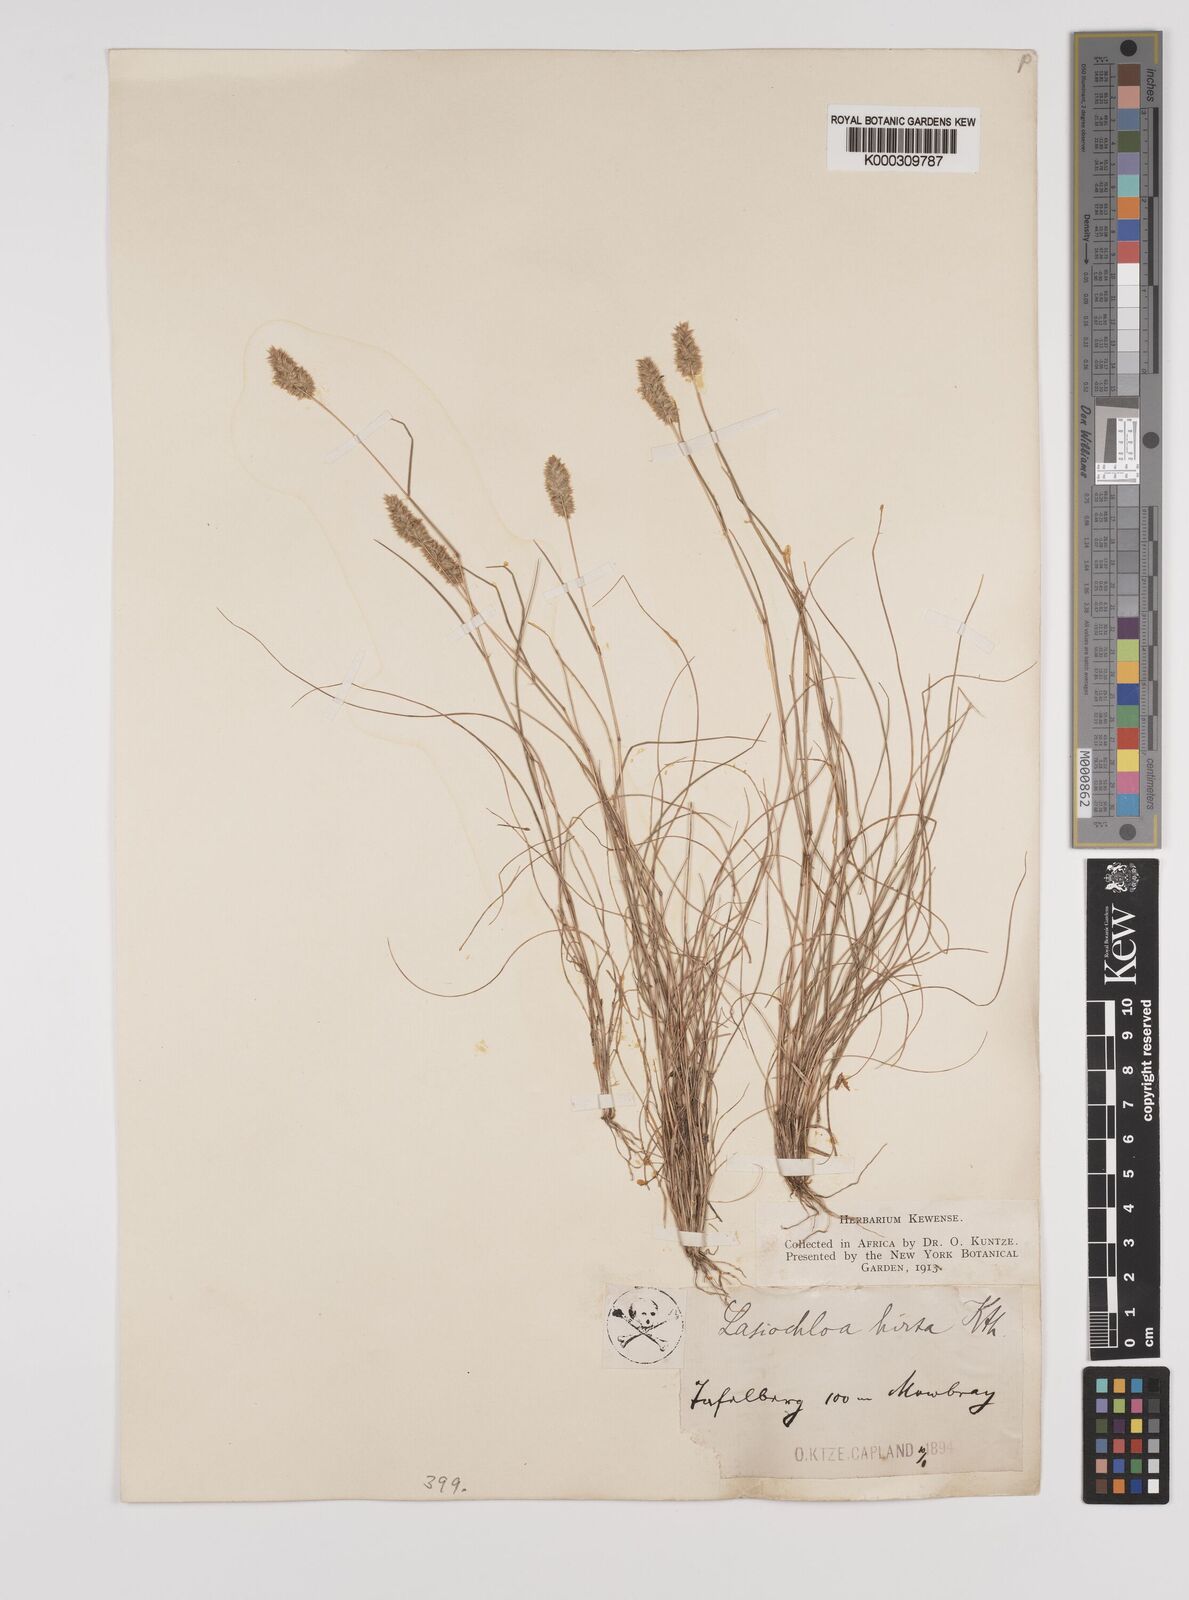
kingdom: Plantae
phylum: Tracheophyta
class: Liliopsida
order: Poales
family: Poaceae
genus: Tribolium
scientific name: Tribolium hispidum
